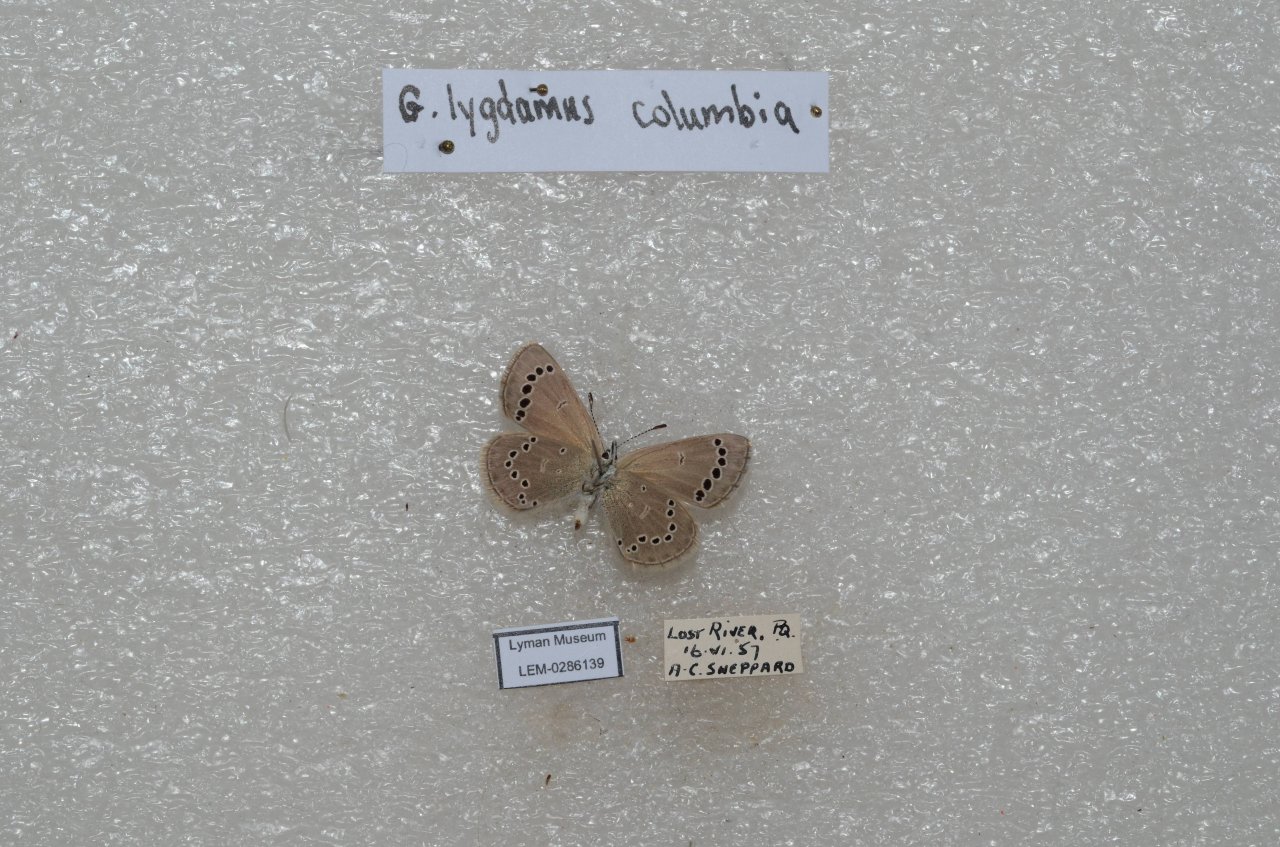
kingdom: Animalia
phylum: Arthropoda
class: Insecta
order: Lepidoptera
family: Lycaenidae
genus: Glaucopsyche
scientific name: Glaucopsyche lygdamus
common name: Silvery Blue
